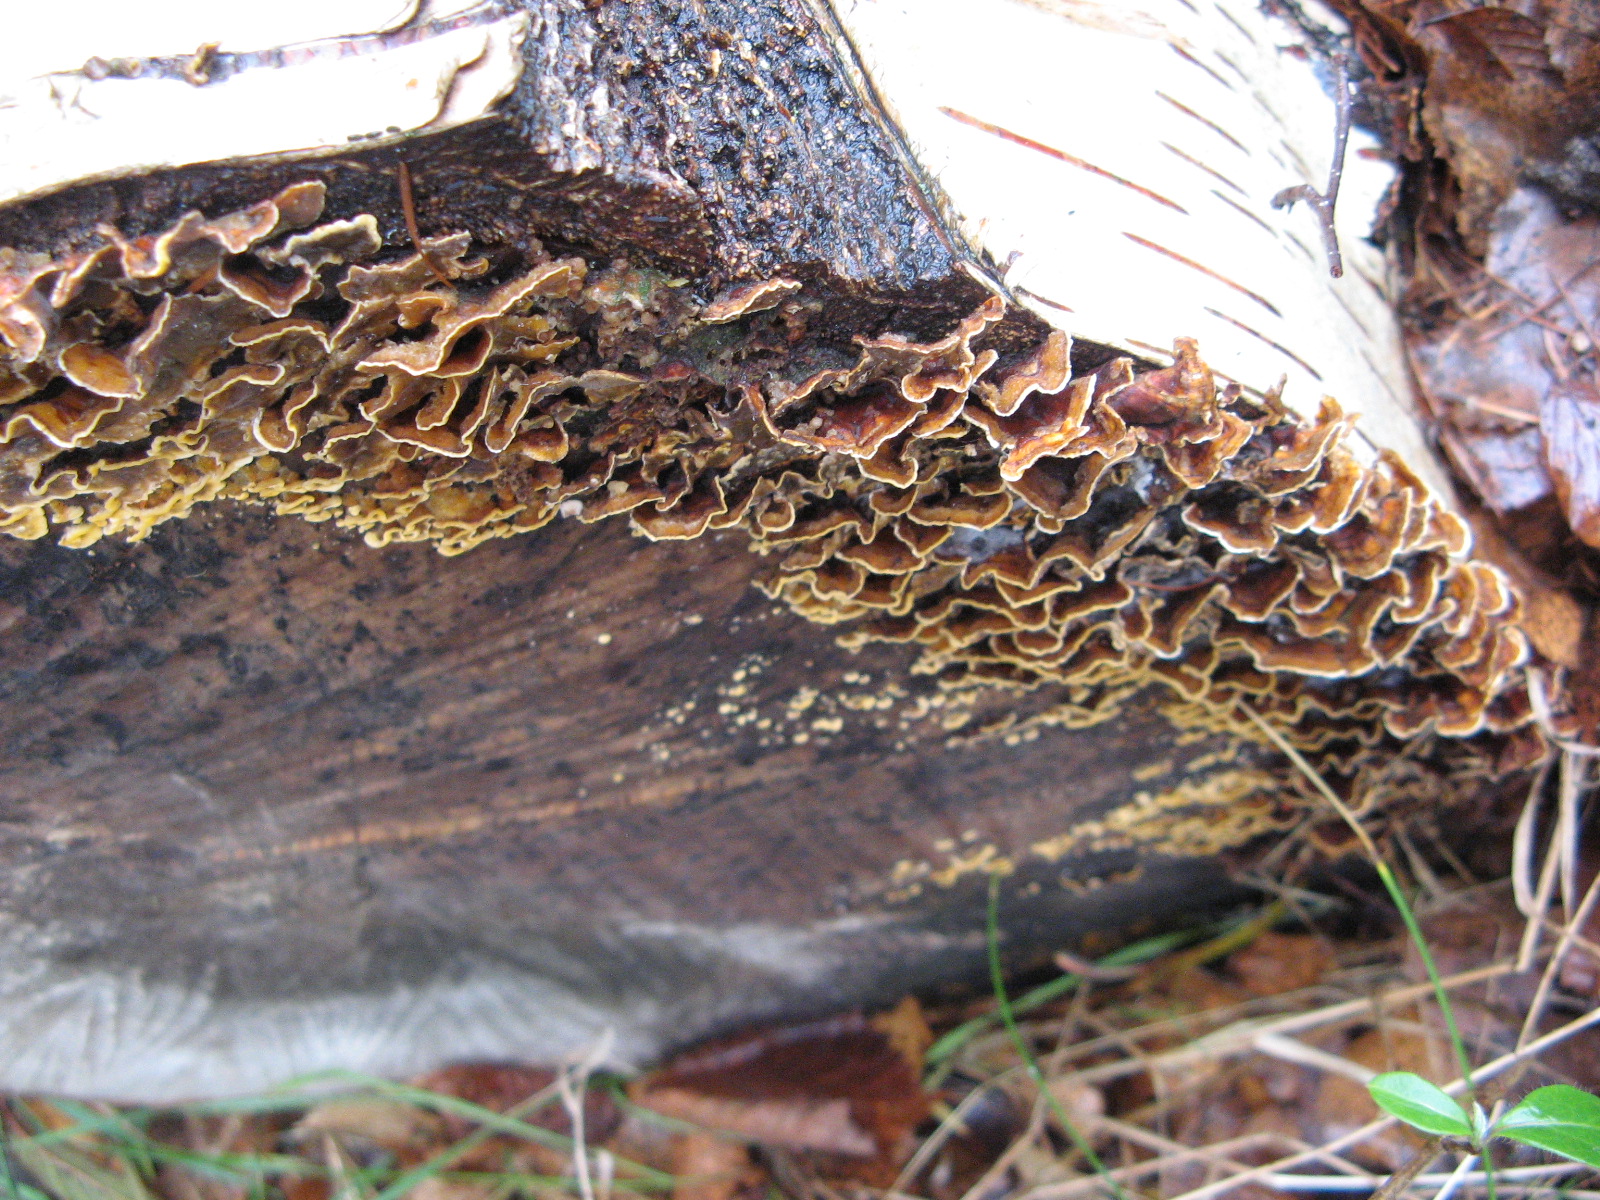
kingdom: Fungi
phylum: Basidiomycota
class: Agaricomycetes
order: Russulales
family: Stereaceae
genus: Stereum
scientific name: Stereum hirsutum
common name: håret lædersvamp
